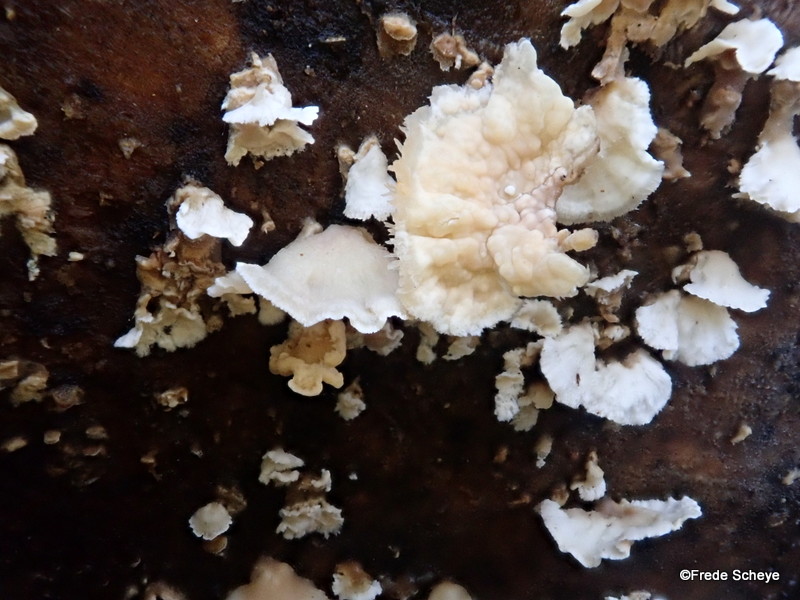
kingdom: Fungi
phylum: Basidiomycota
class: Agaricomycetes
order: Agaricales
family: Physalacriaceae
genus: Cylindrobasidium
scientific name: Cylindrobasidium evolvens
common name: sprækkehinde
